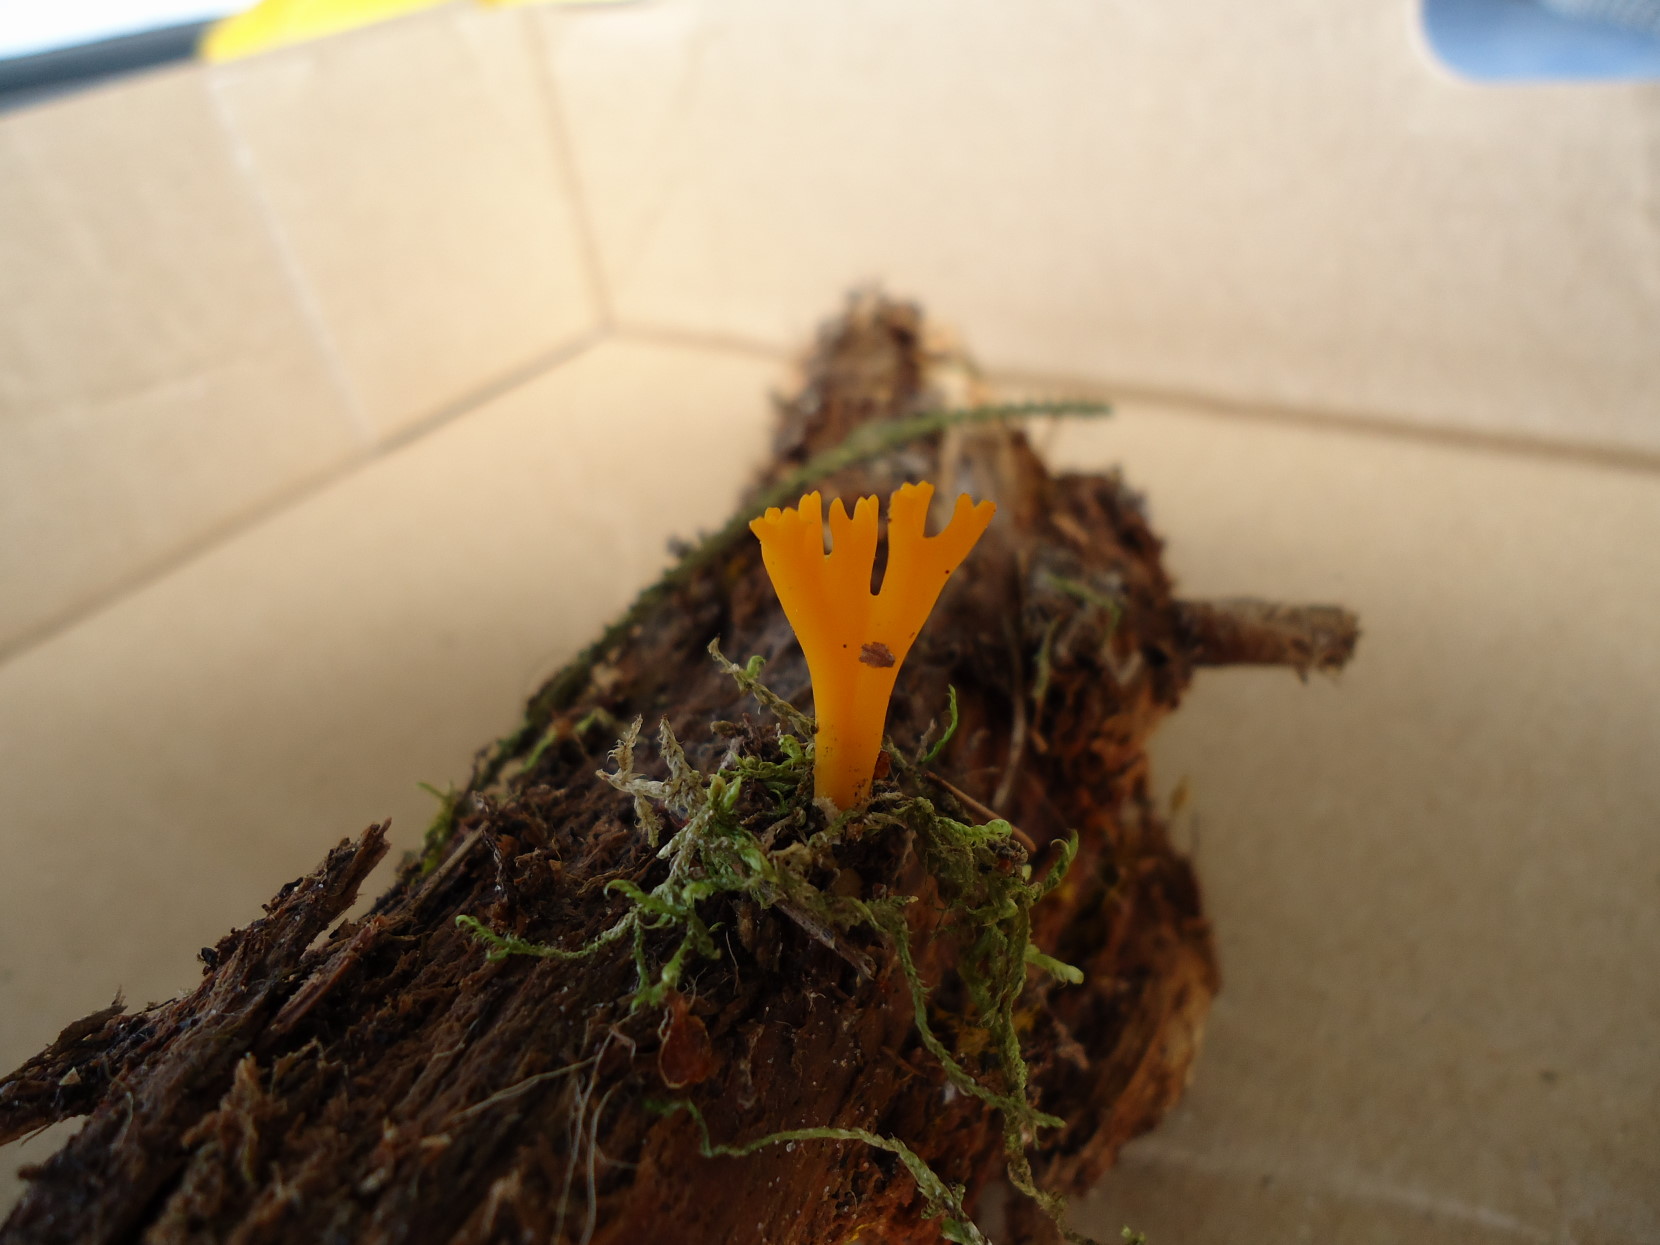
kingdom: Fungi
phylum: Basidiomycota
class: Dacrymycetes
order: Dacrymycetales
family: Dacrymycetaceae
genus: Calocera
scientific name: Calocera viscosa
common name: almindelig guldgaffel
